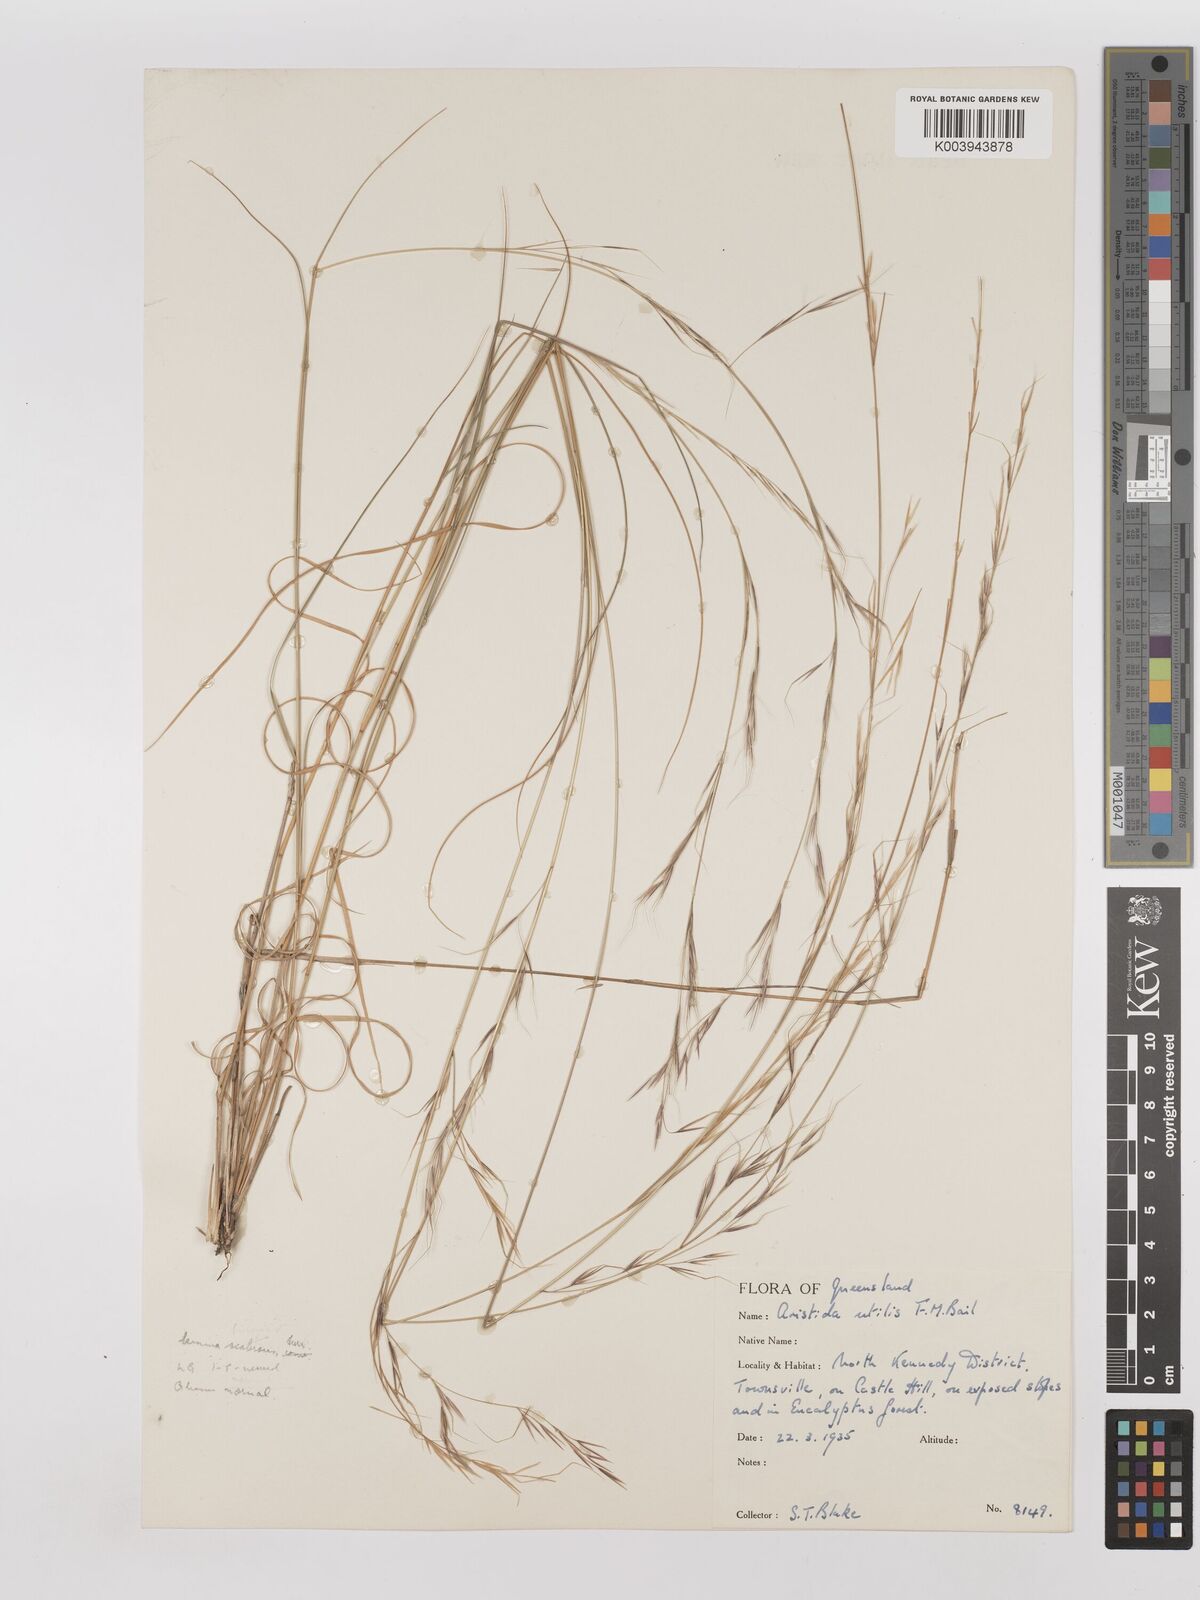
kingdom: Plantae
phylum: Tracheophyta
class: Liliopsida
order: Poales
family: Poaceae
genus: Aristida
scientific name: Aristida utilis
